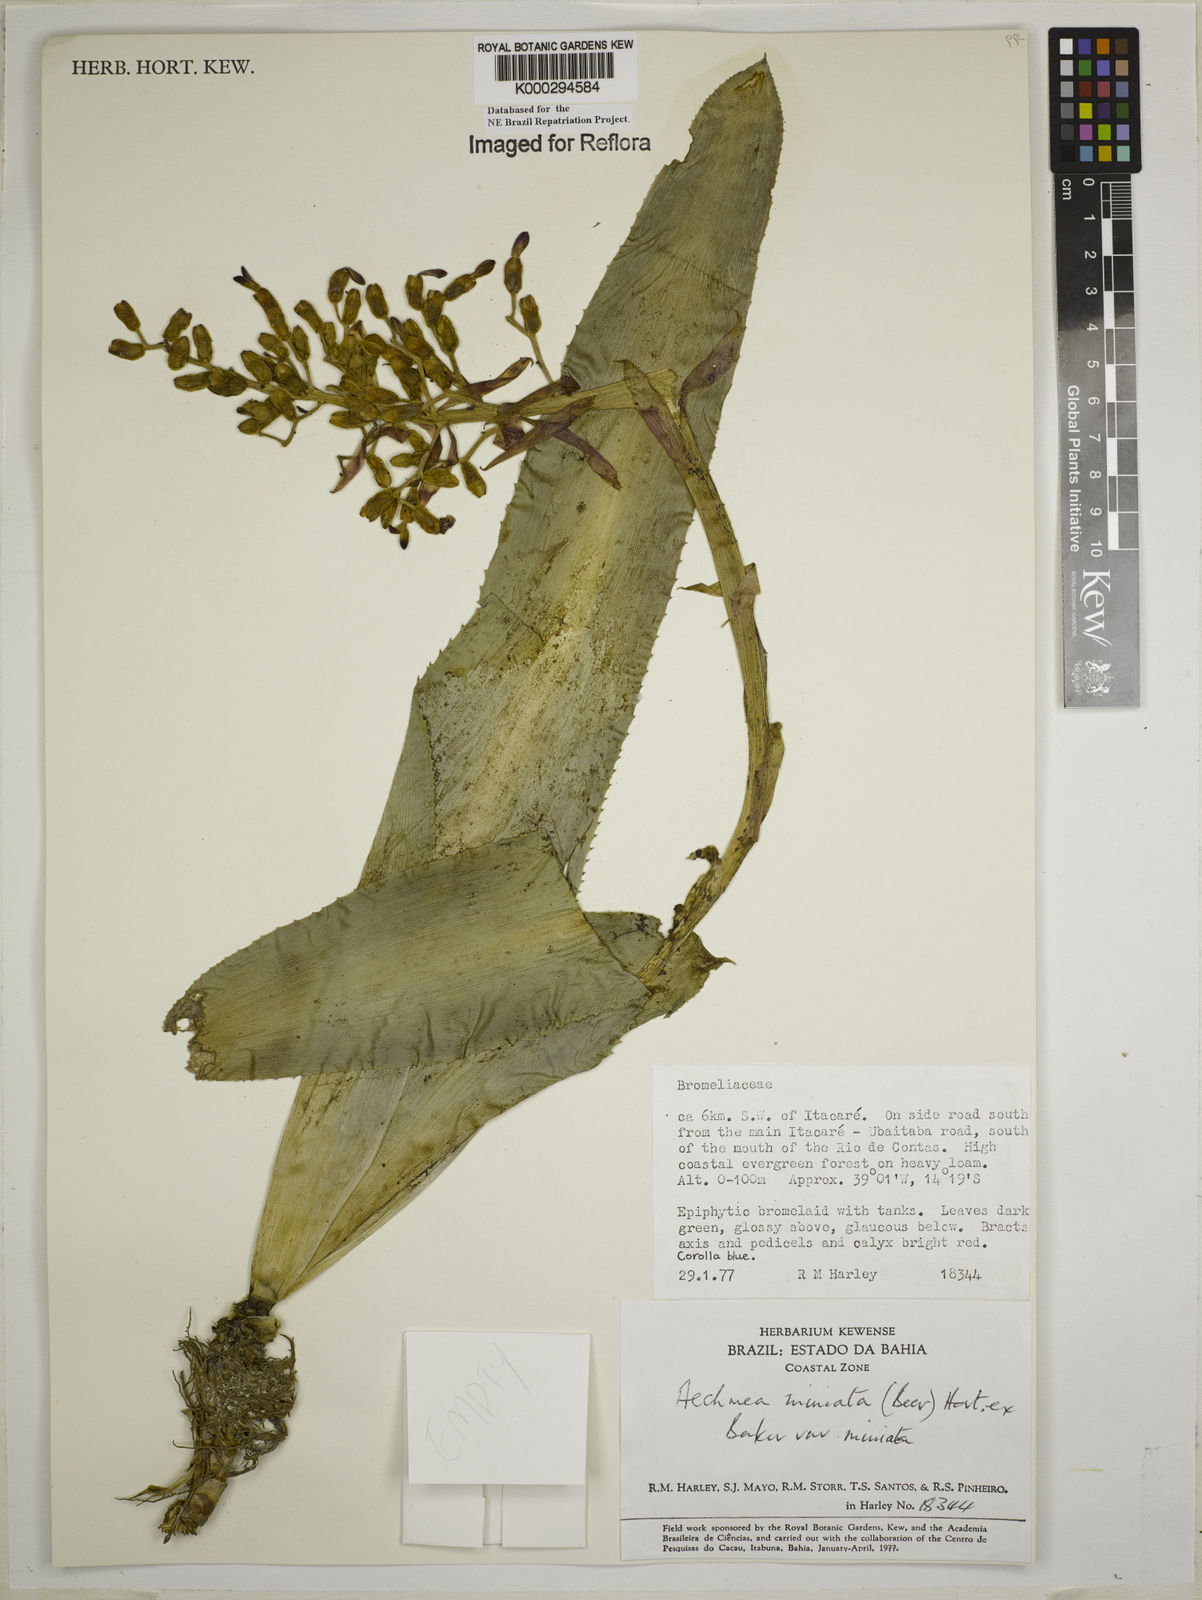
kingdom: Plantae
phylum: Tracheophyta
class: Liliopsida
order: Poales
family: Bromeliaceae
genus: Aechmea
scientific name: Aechmea miniata
